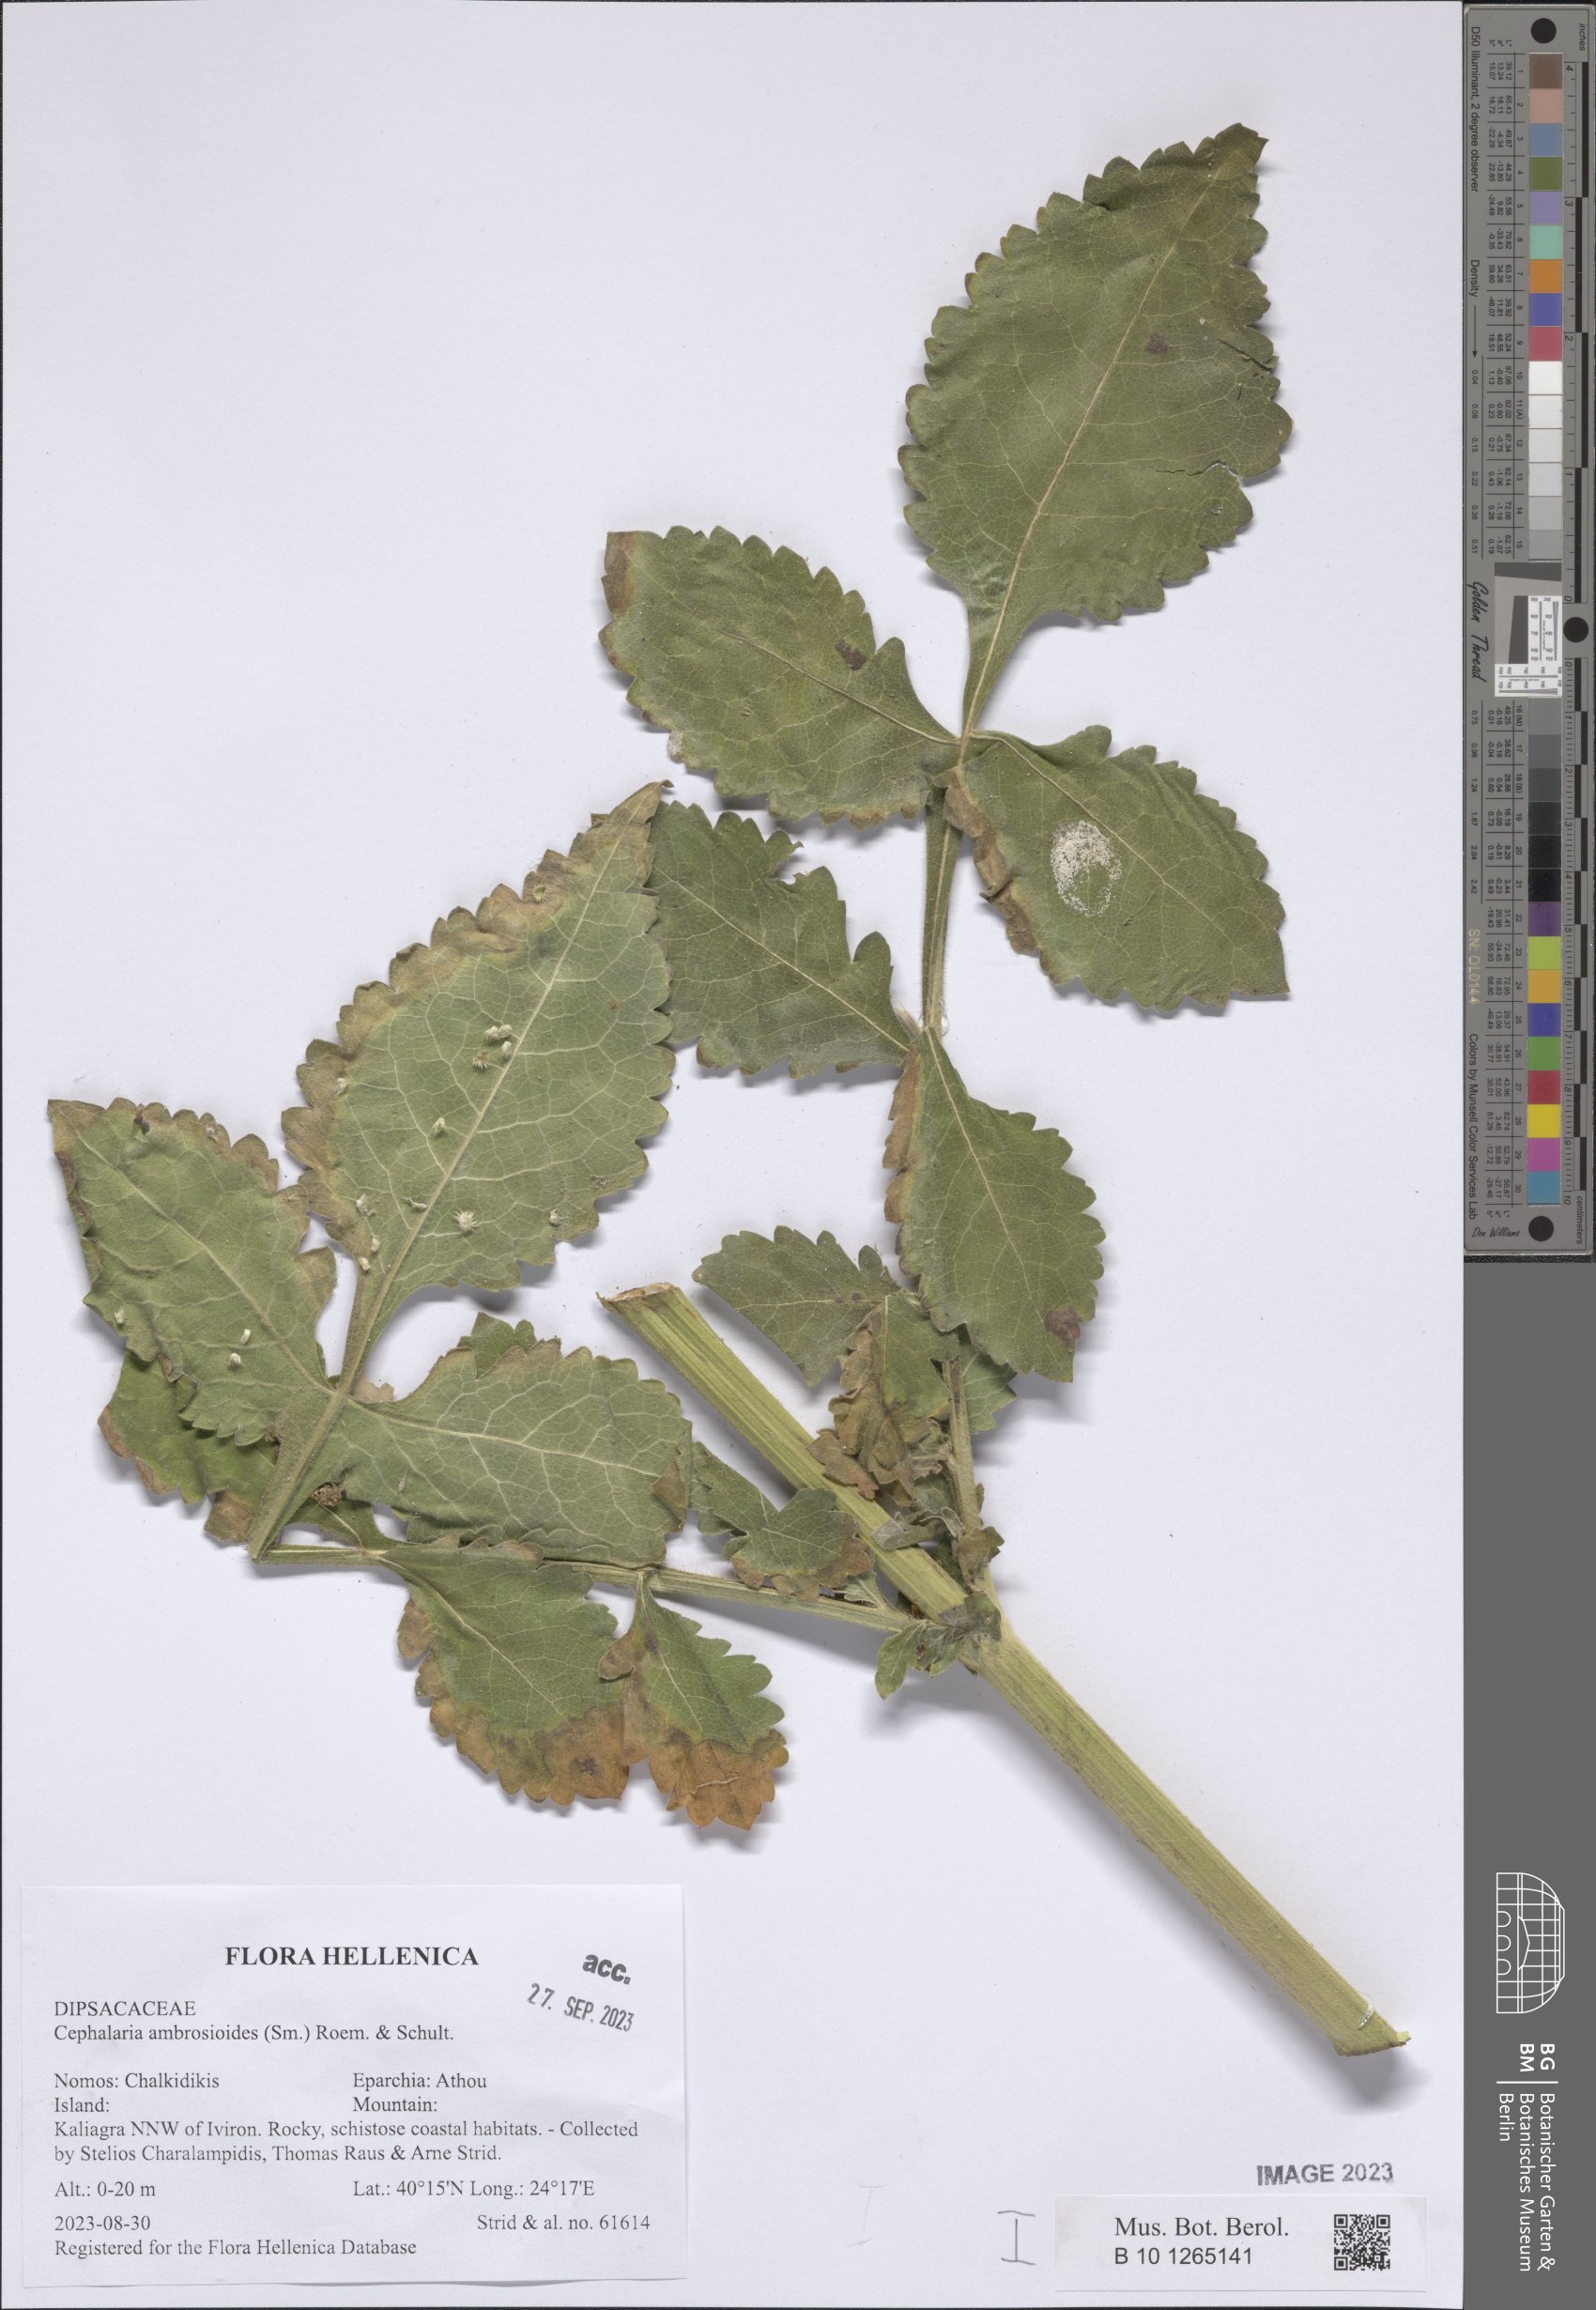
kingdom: Plantae
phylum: Tracheophyta
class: Magnoliopsida
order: Dipsacales
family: Caprifoliaceae
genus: Cephalaria
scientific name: Cephalaria ambrosioides
